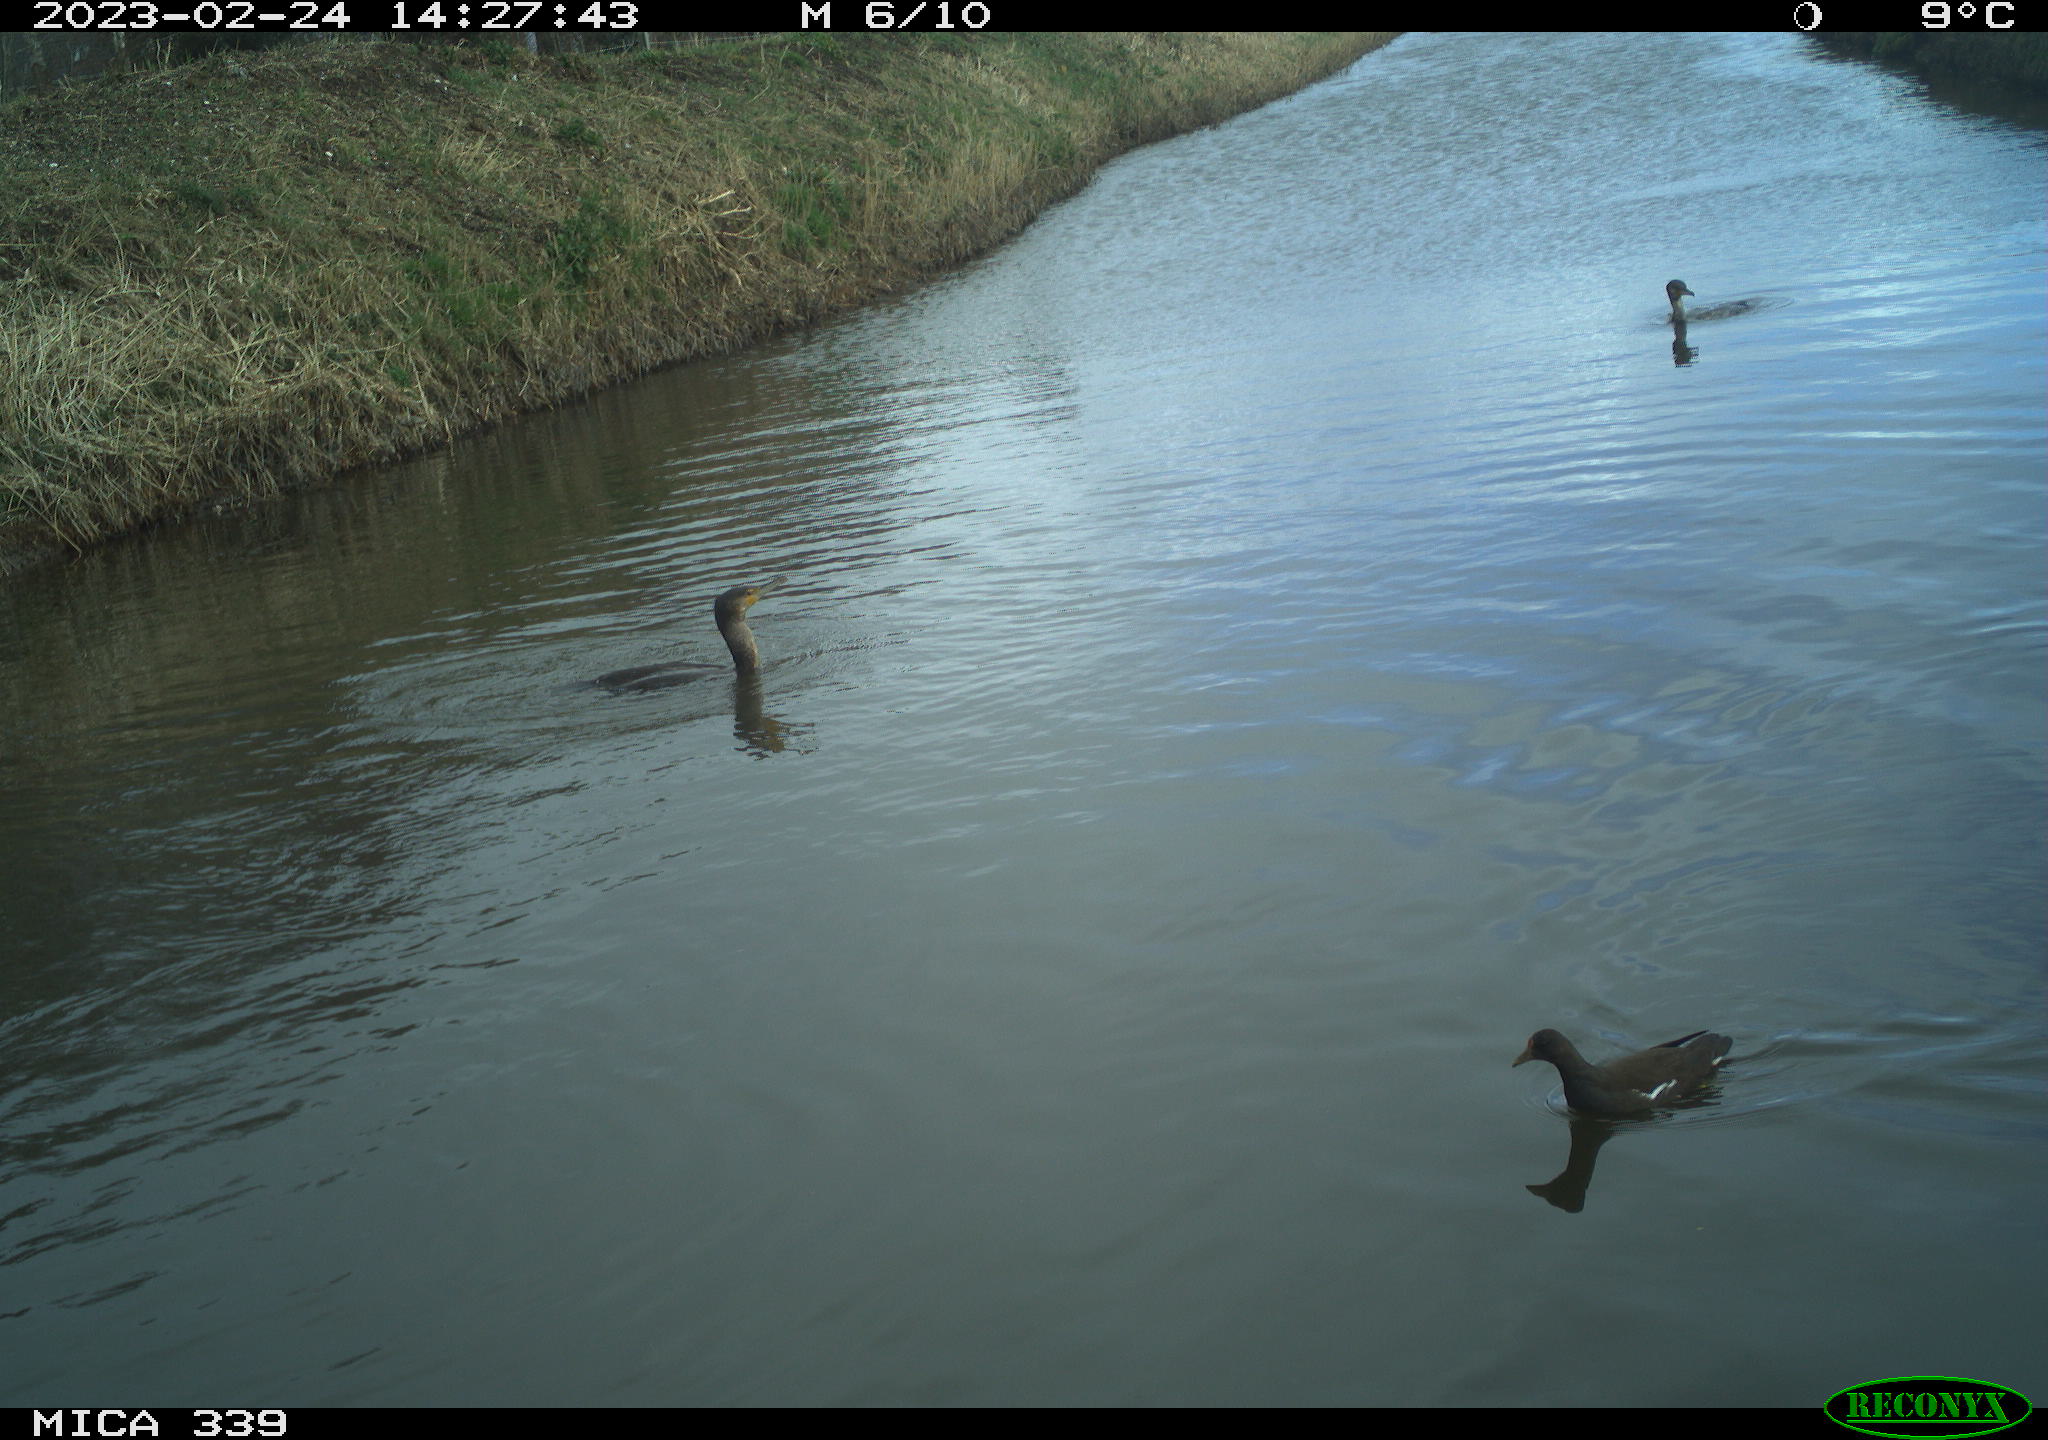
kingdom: Animalia
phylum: Chordata
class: Aves
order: Suliformes
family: Phalacrocoracidae
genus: Phalacrocorax
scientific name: Phalacrocorax carbo
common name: Great cormorant
